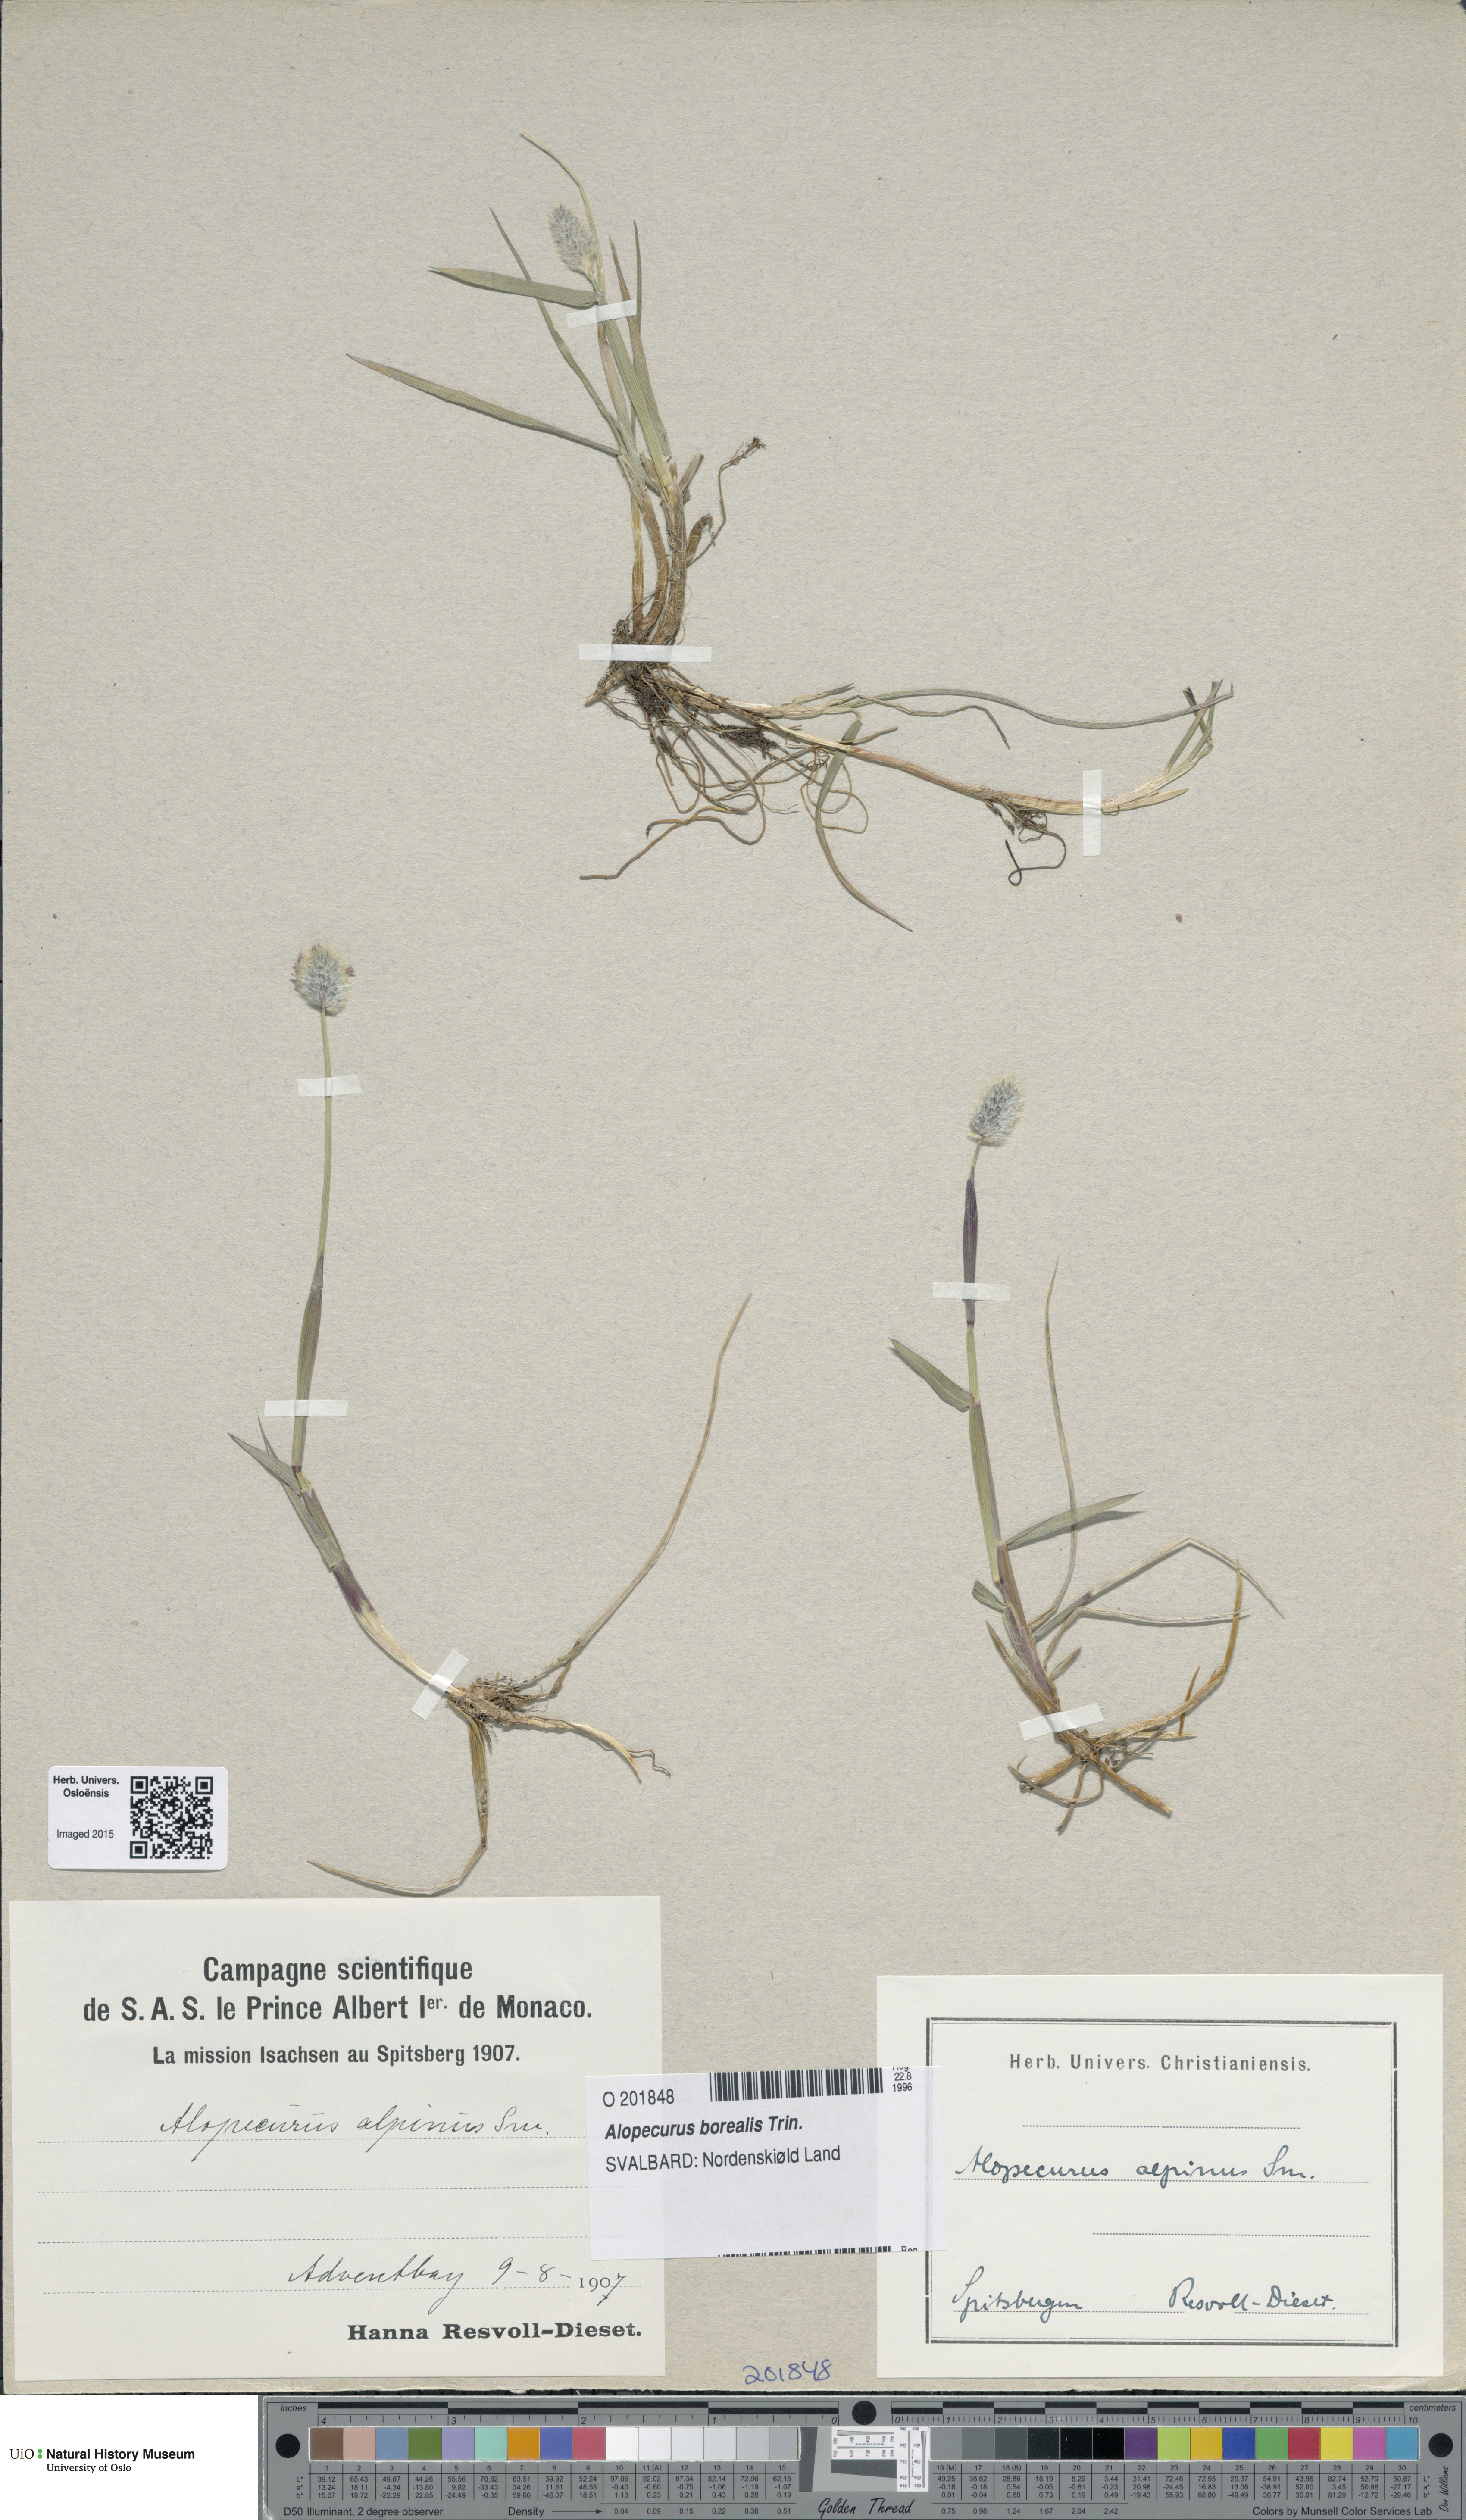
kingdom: Plantae
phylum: Tracheophyta
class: Liliopsida
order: Poales
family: Poaceae
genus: Alopecurus
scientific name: Alopecurus magellanicus
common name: Alpine foxtail
